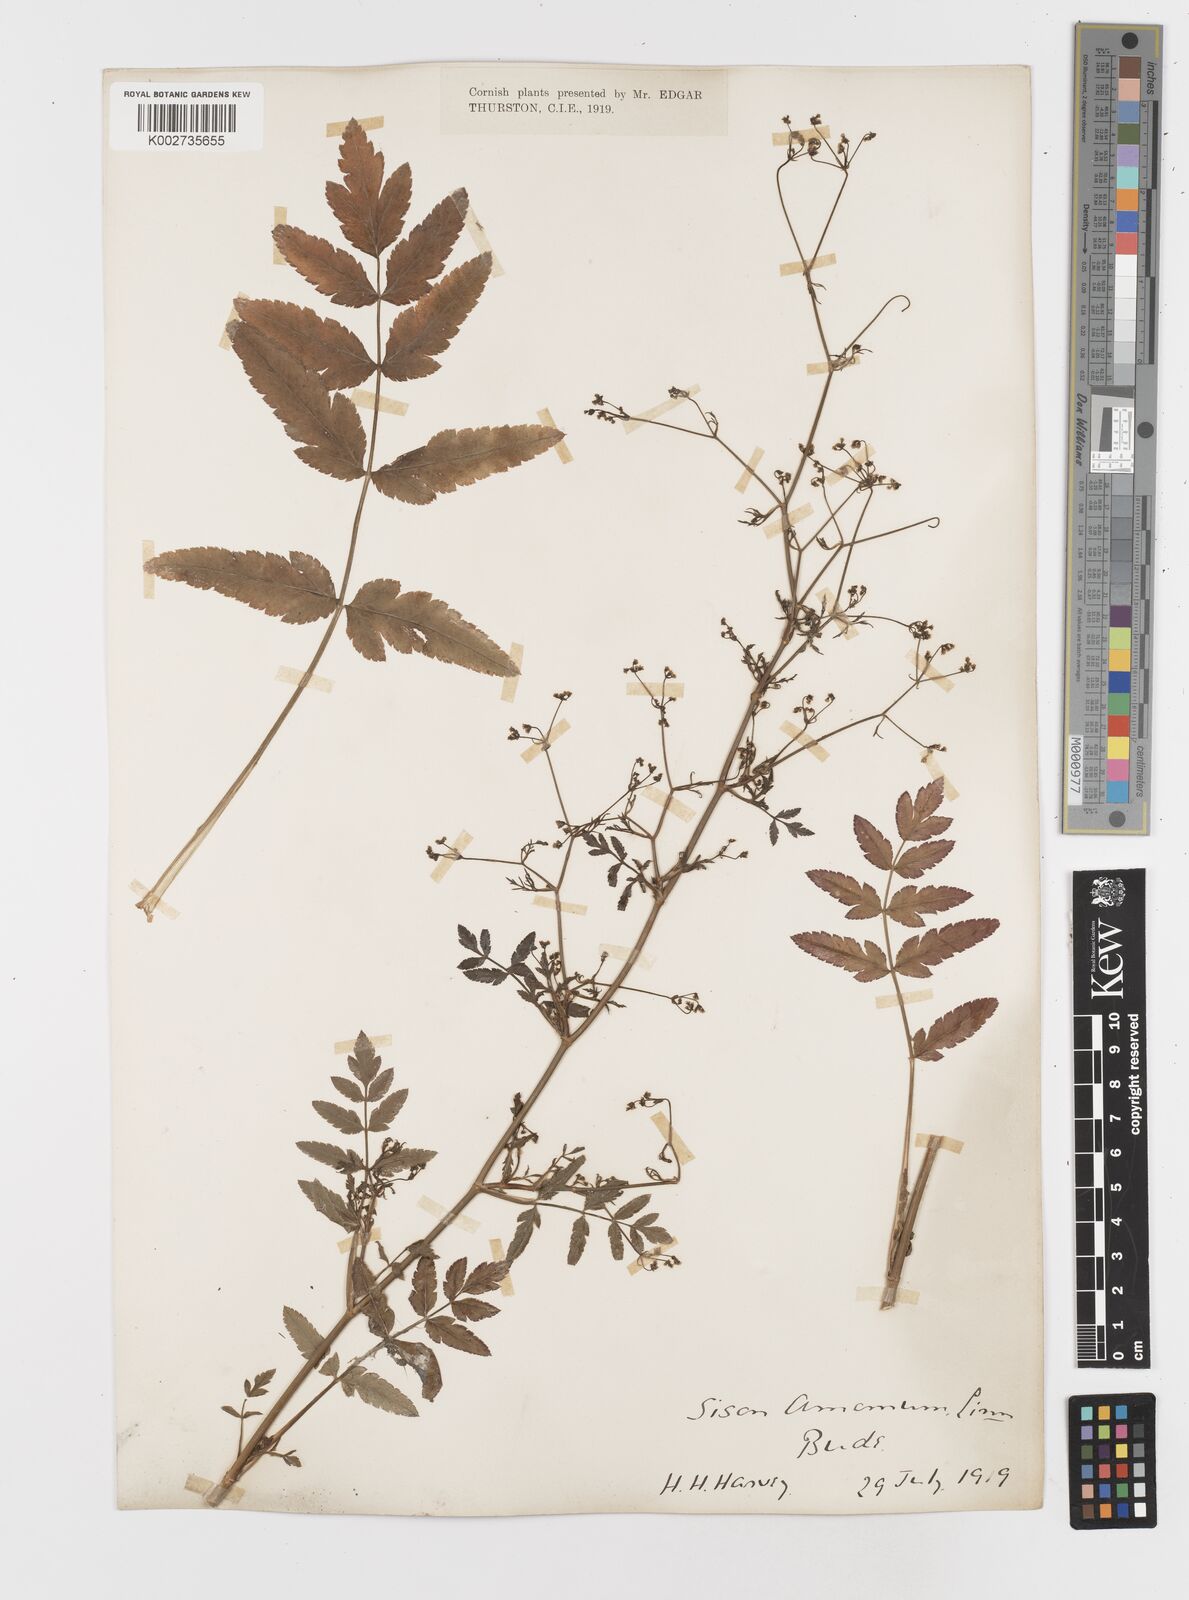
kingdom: Plantae
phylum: Tracheophyta
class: Magnoliopsida
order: Apiales
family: Apiaceae
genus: Sison
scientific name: Sison amomum
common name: Stone-parsley
